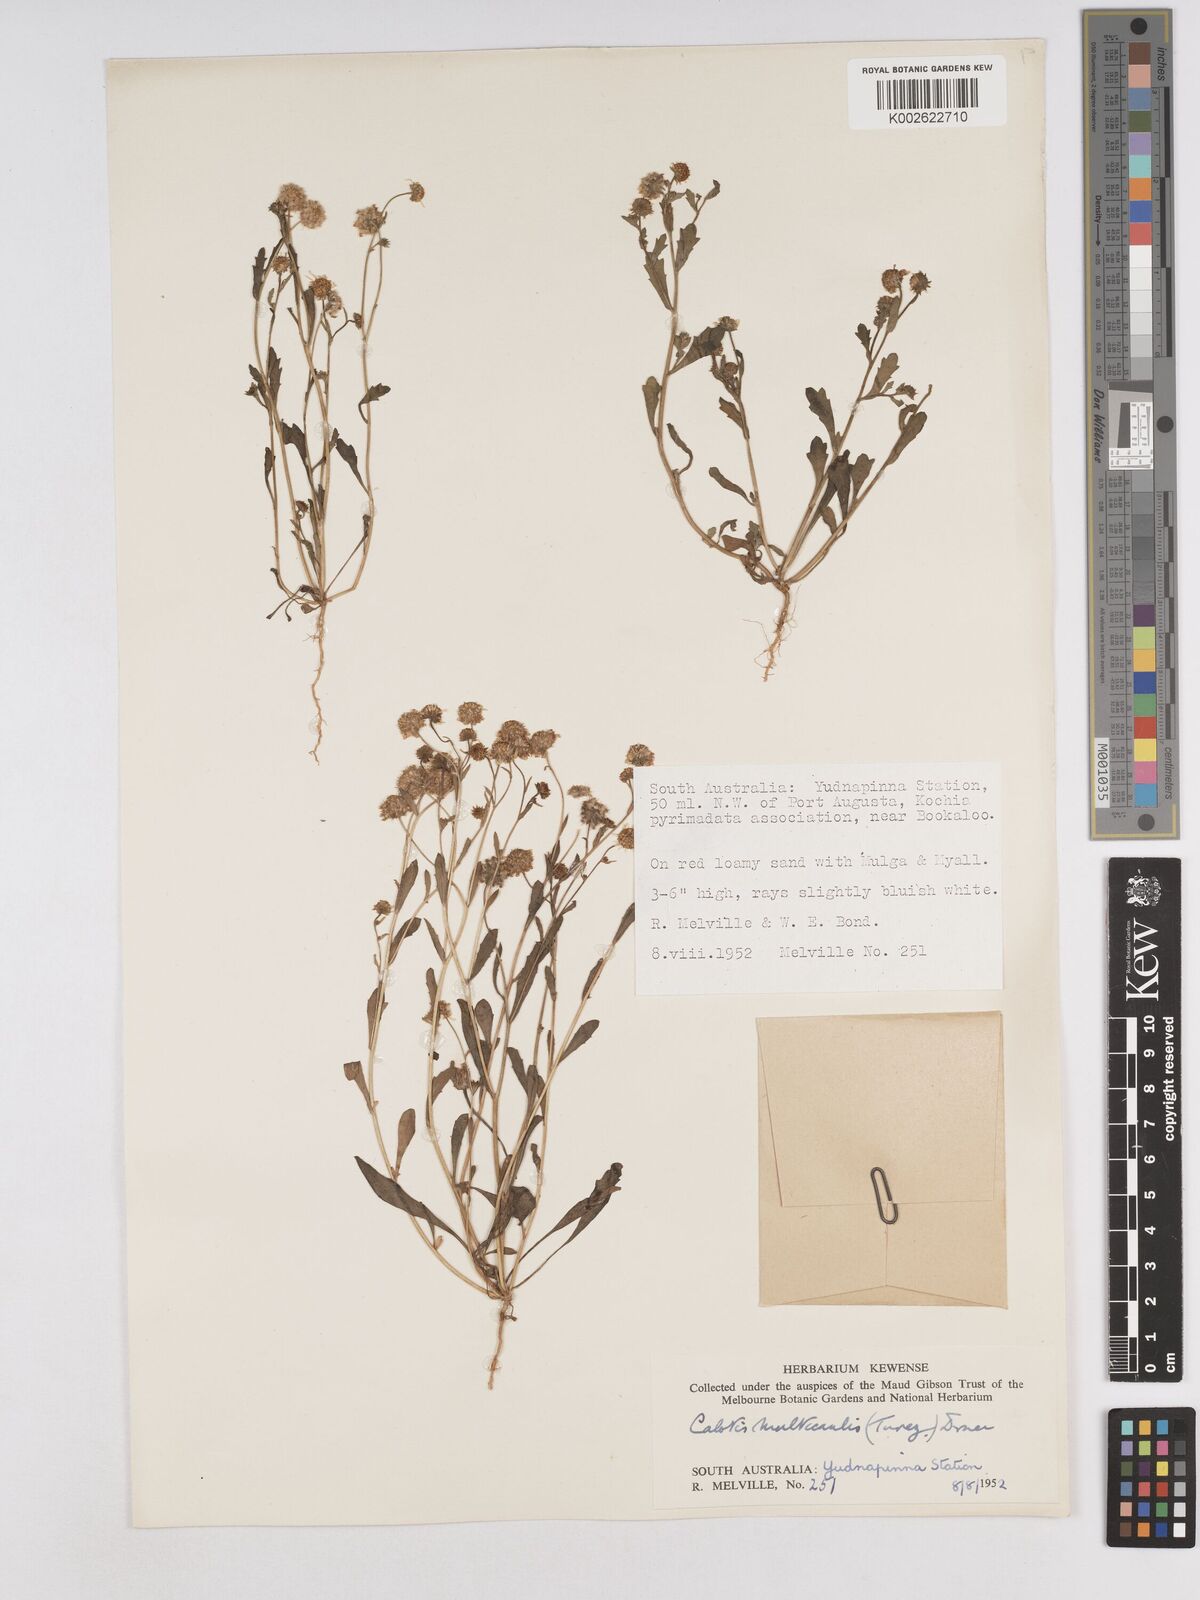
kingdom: Plantae
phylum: Tracheophyta
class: Magnoliopsida
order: Asterales
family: Asteraceae
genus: Calotis
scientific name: Calotis multicaulis
